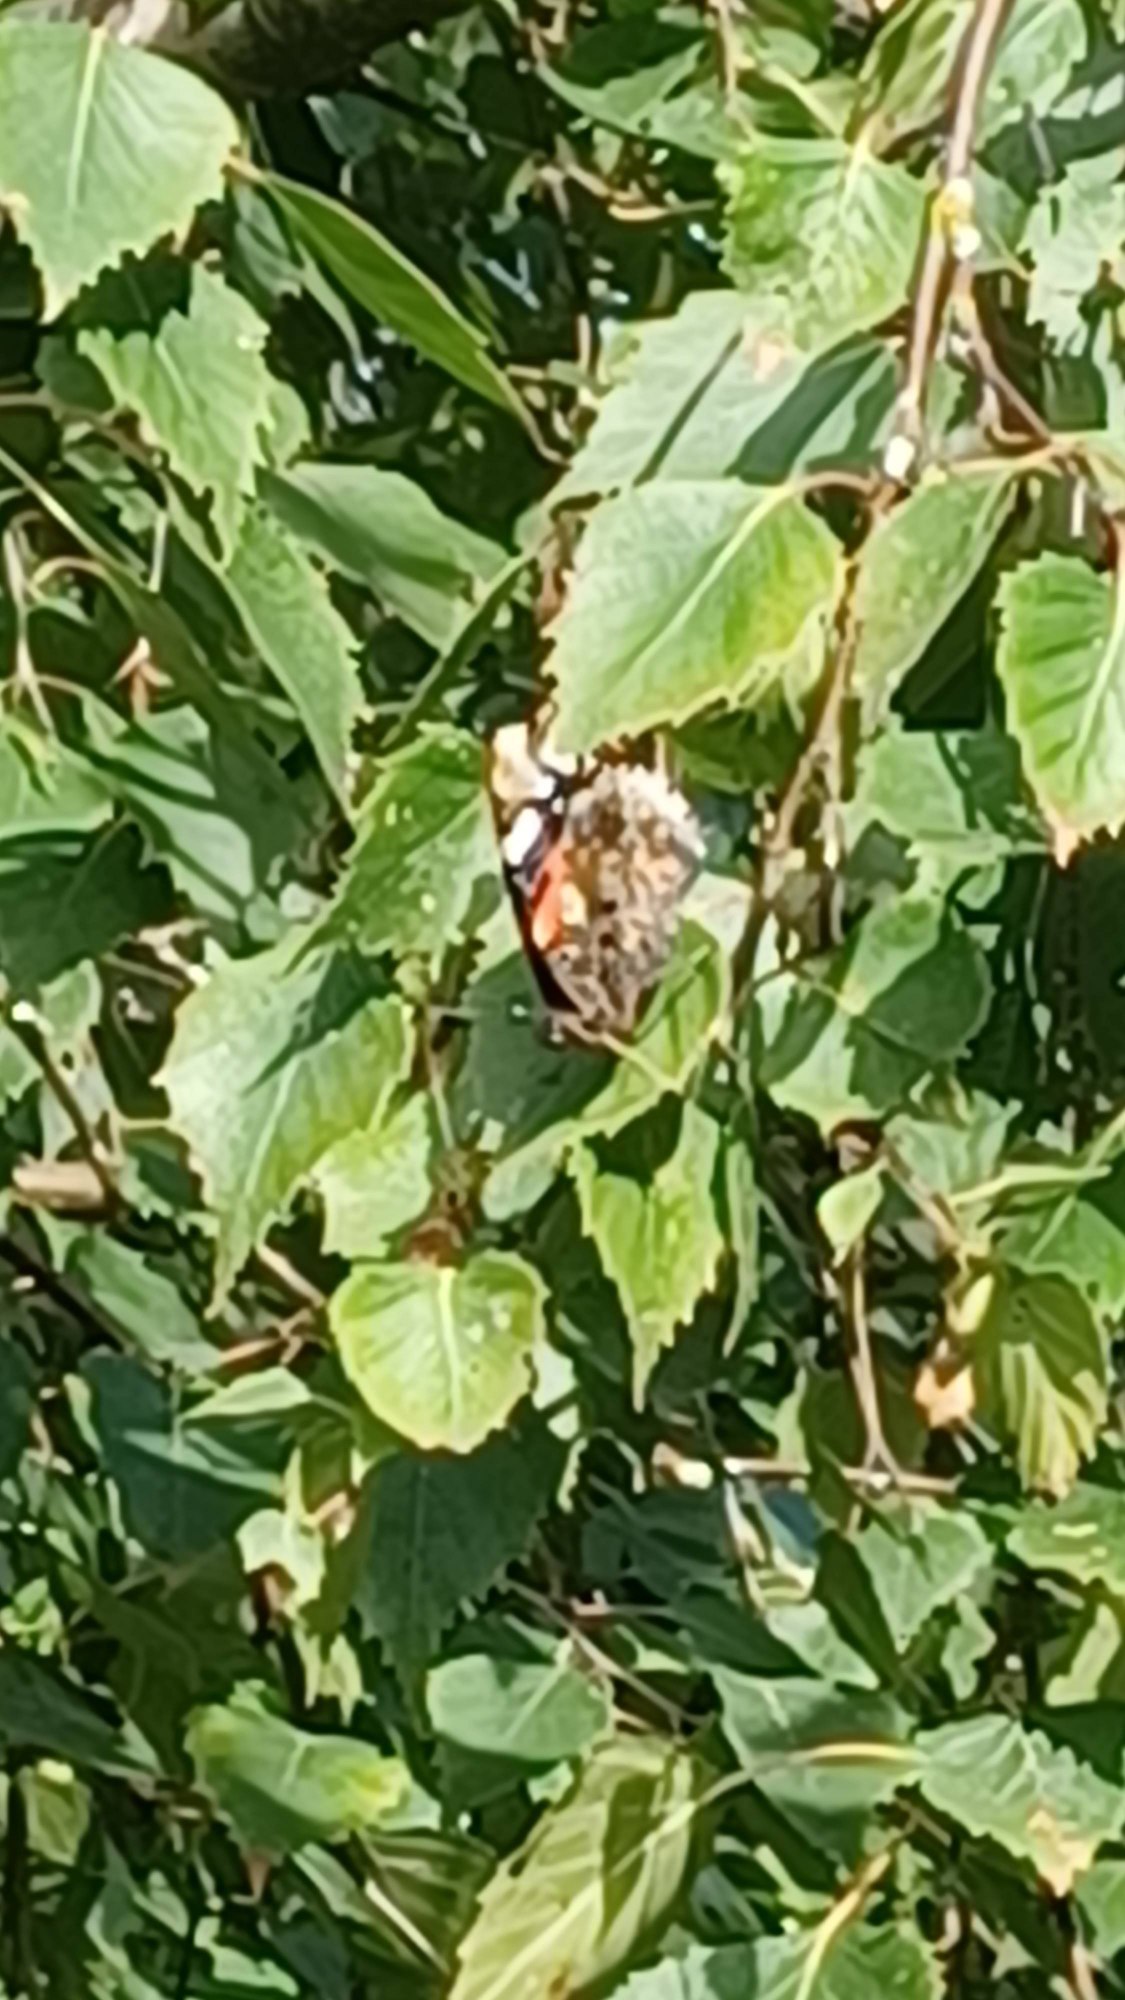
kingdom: Animalia
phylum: Arthropoda
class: Insecta
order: Lepidoptera
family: Nymphalidae
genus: Vanessa
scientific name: Vanessa atalanta
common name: Admiral
